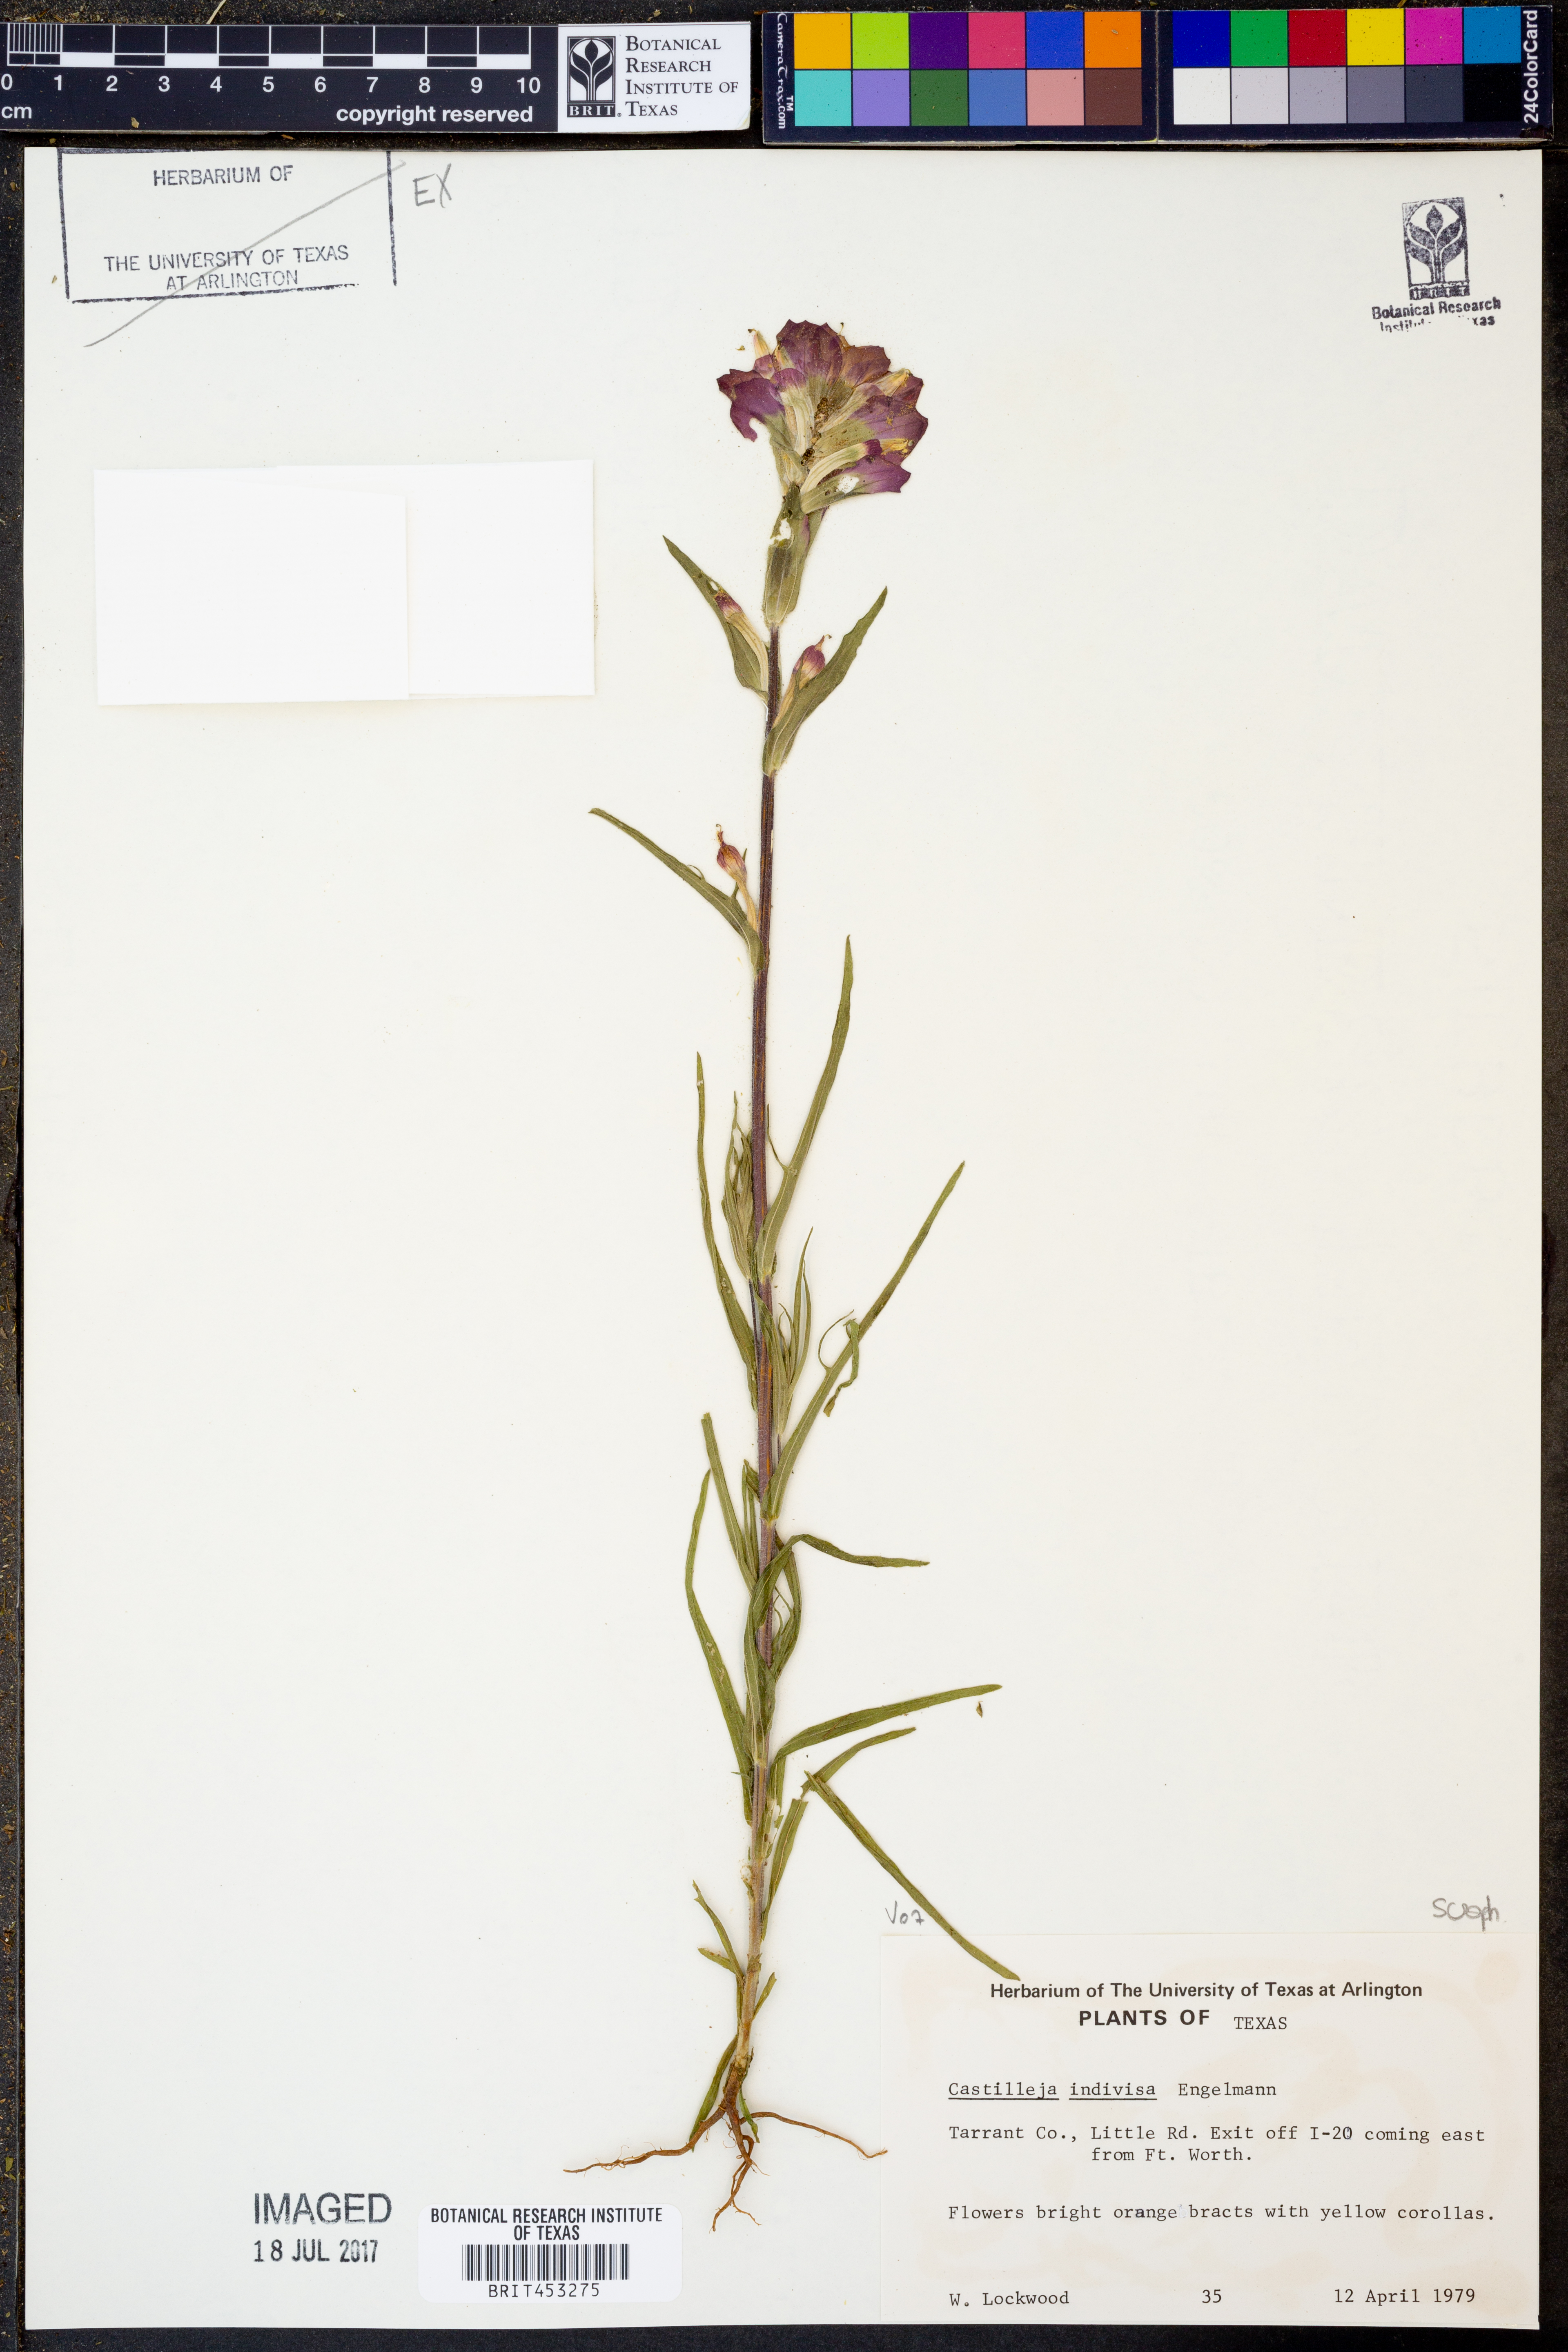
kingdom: Plantae
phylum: Tracheophyta
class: Magnoliopsida
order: Lamiales
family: Orobanchaceae
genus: Castilleja
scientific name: Castilleja indivisa
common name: Texas paintbrush
